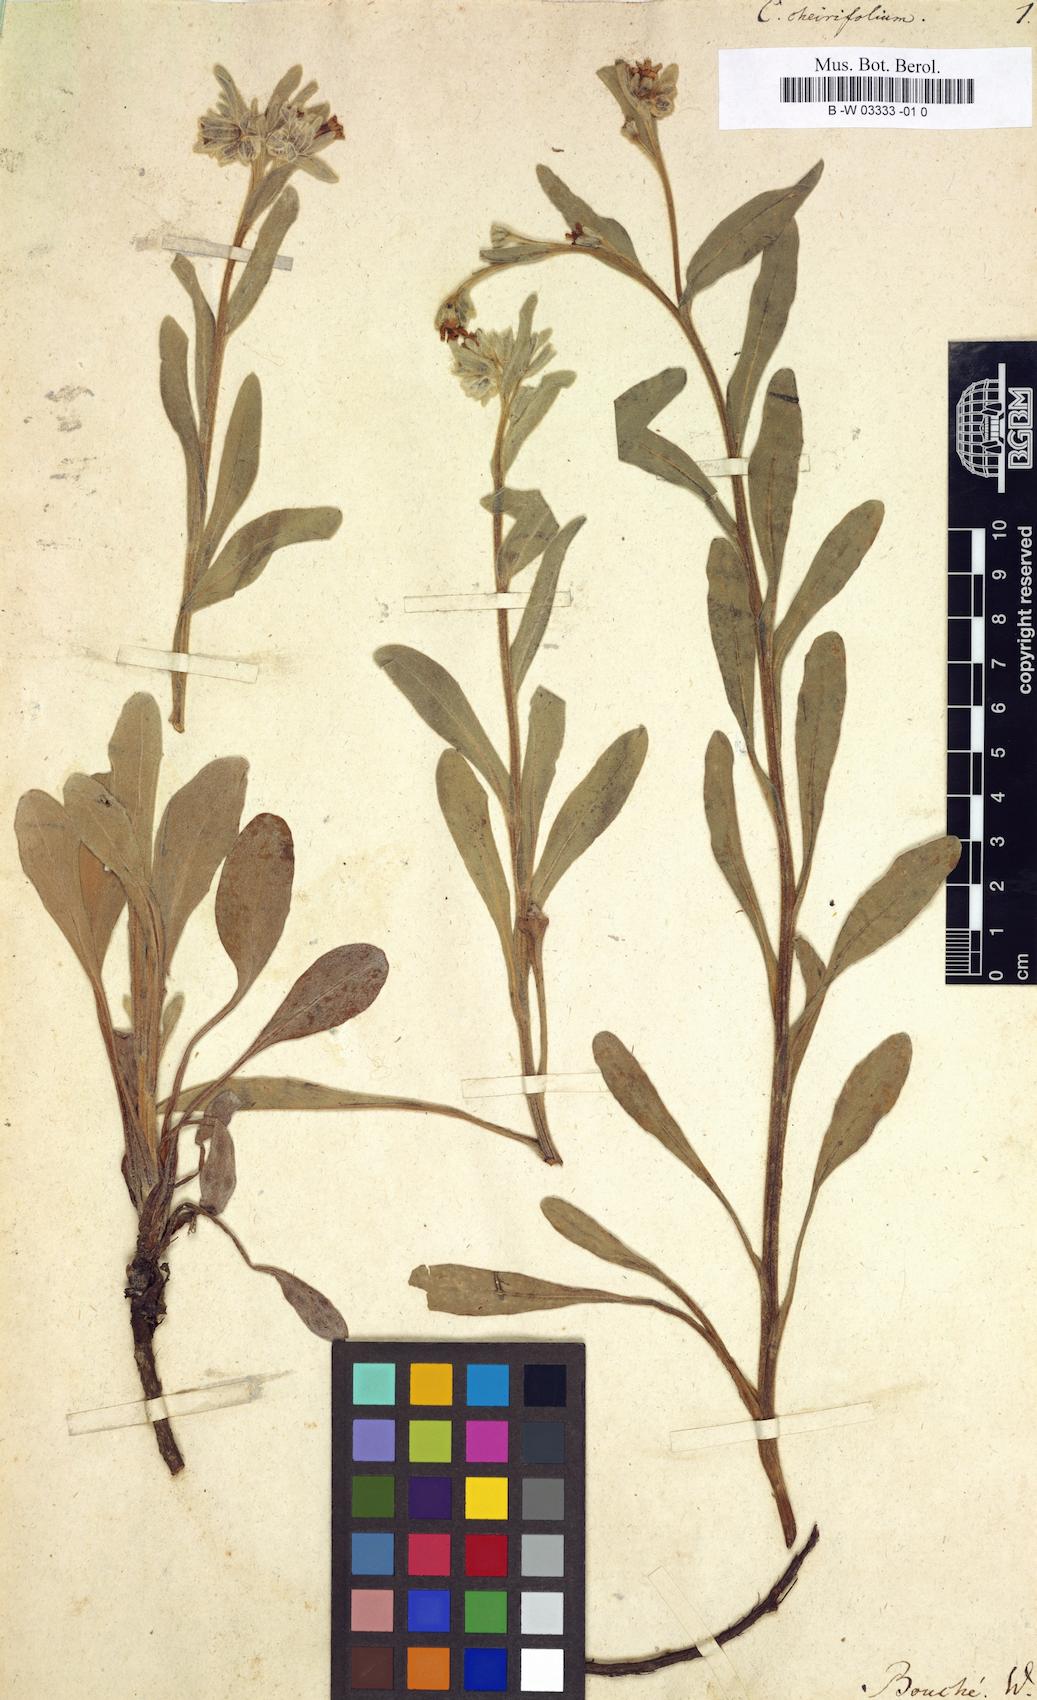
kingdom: Plantae
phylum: Tracheophyta
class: Magnoliopsida
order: Boraginales
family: Boraginaceae
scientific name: Boraginaceae
